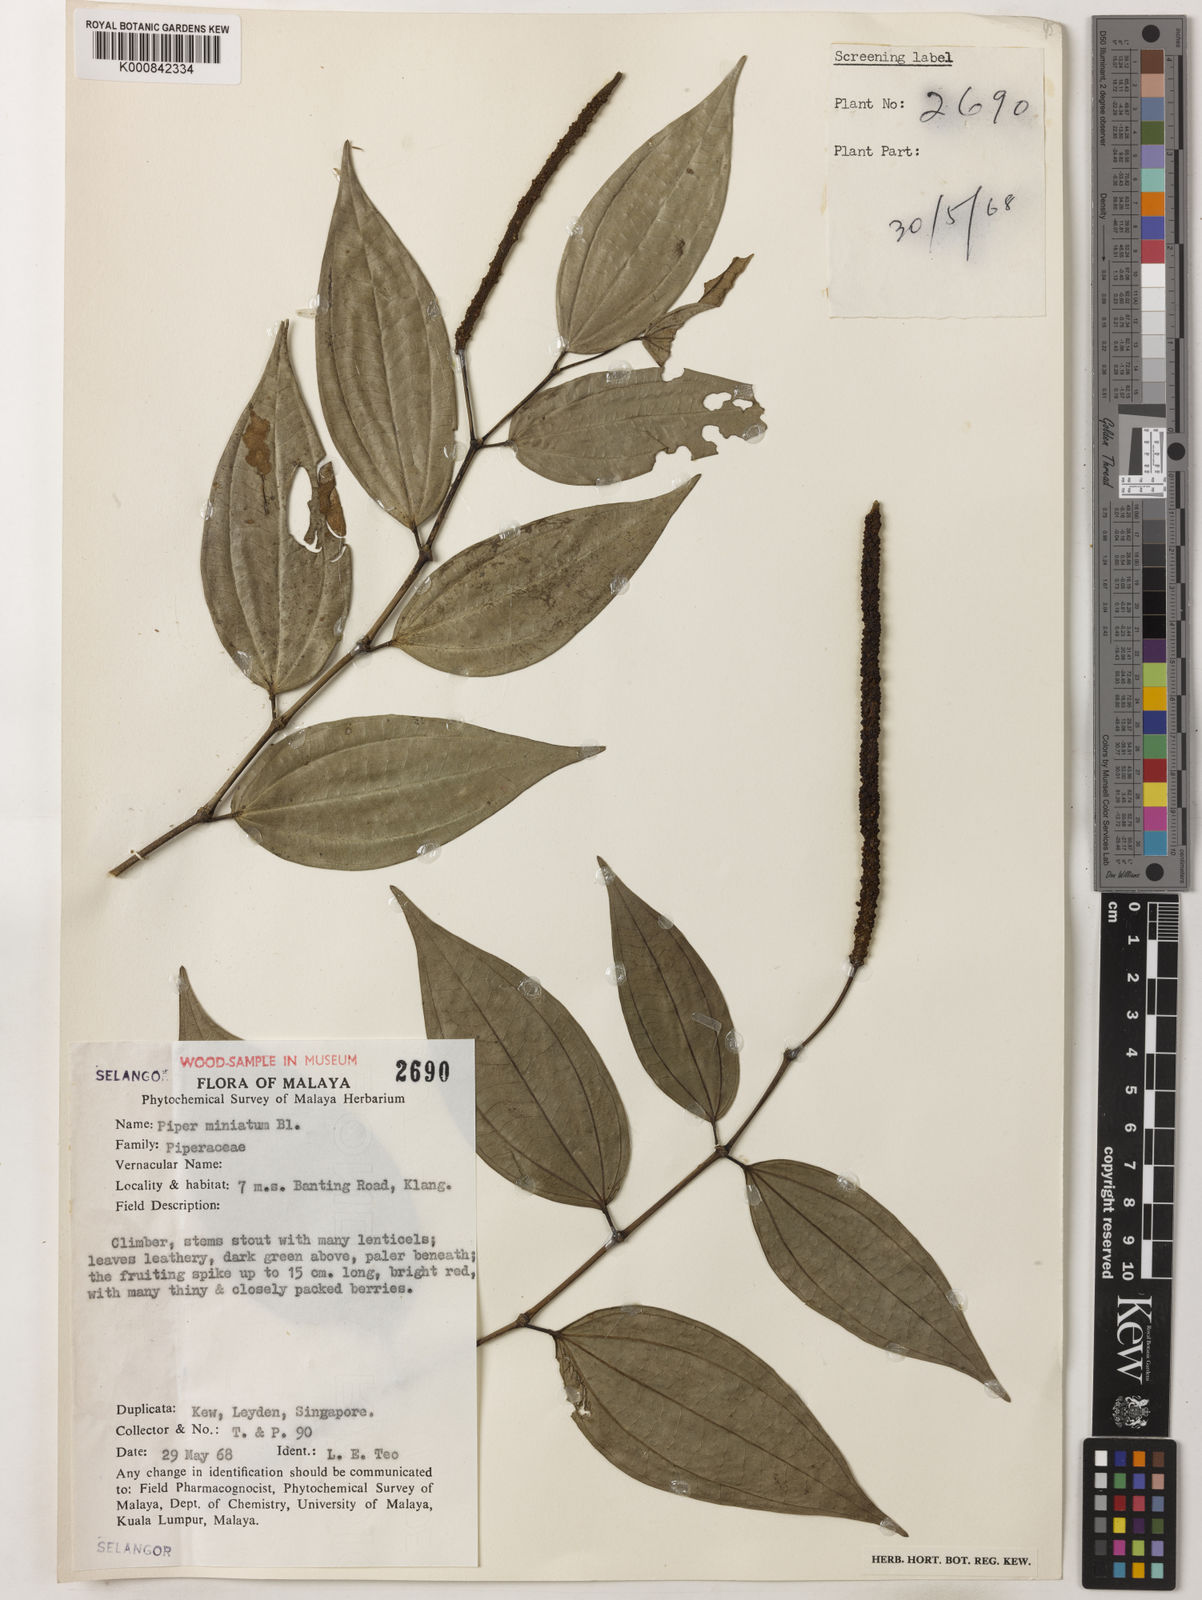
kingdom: Plantae
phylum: Tracheophyta
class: Magnoliopsida
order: Piperales
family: Piperaceae
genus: Piper
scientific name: Piper macropiper
